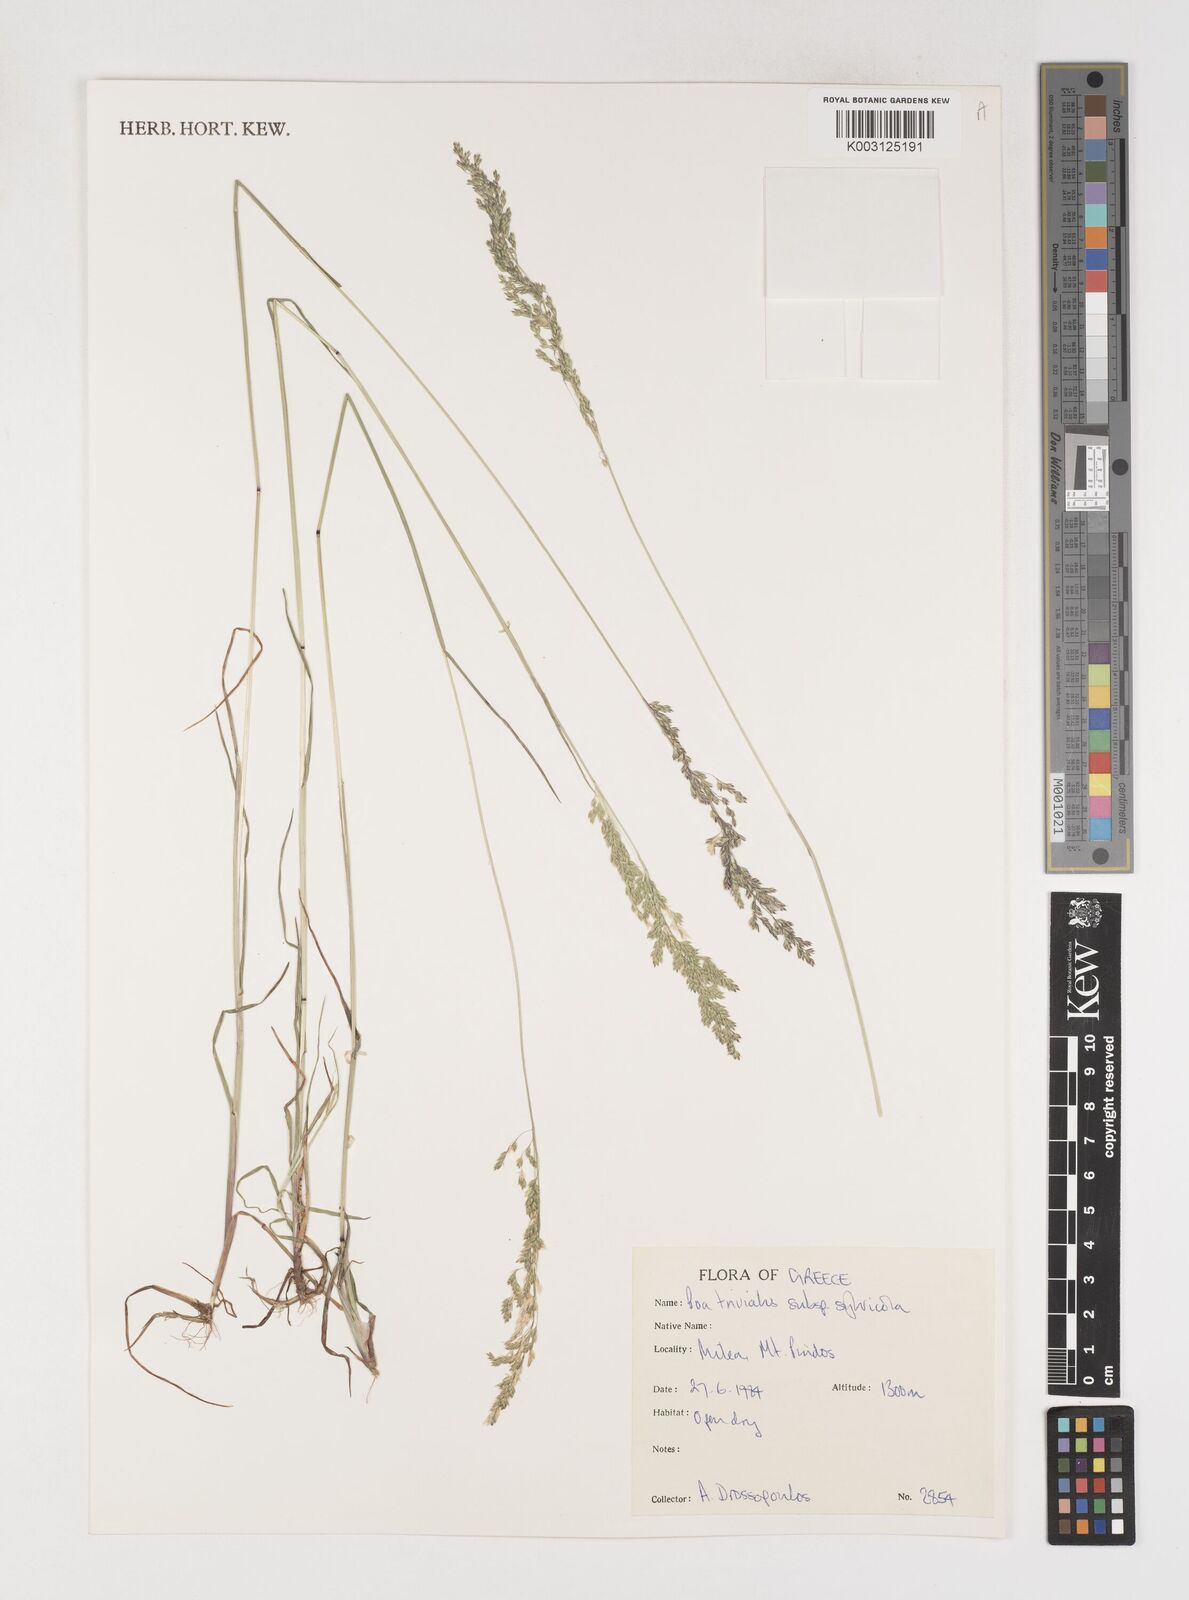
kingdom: Plantae
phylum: Tracheophyta
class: Liliopsida
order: Poales
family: Poaceae
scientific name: Poaceae
